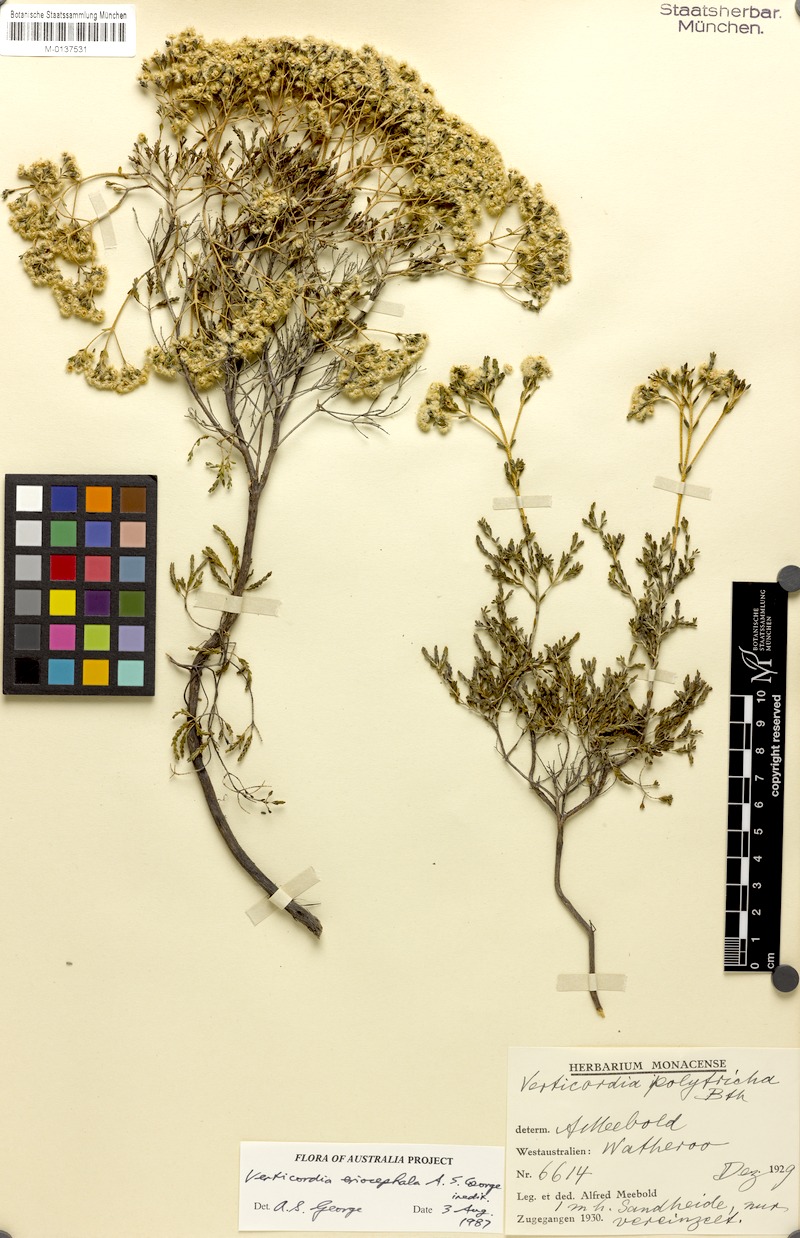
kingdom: Plantae
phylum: Tracheophyta
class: Magnoliopsida
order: Myrtales
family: Myrtaceae
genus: Verticordia
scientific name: Verticordia eriocephala
